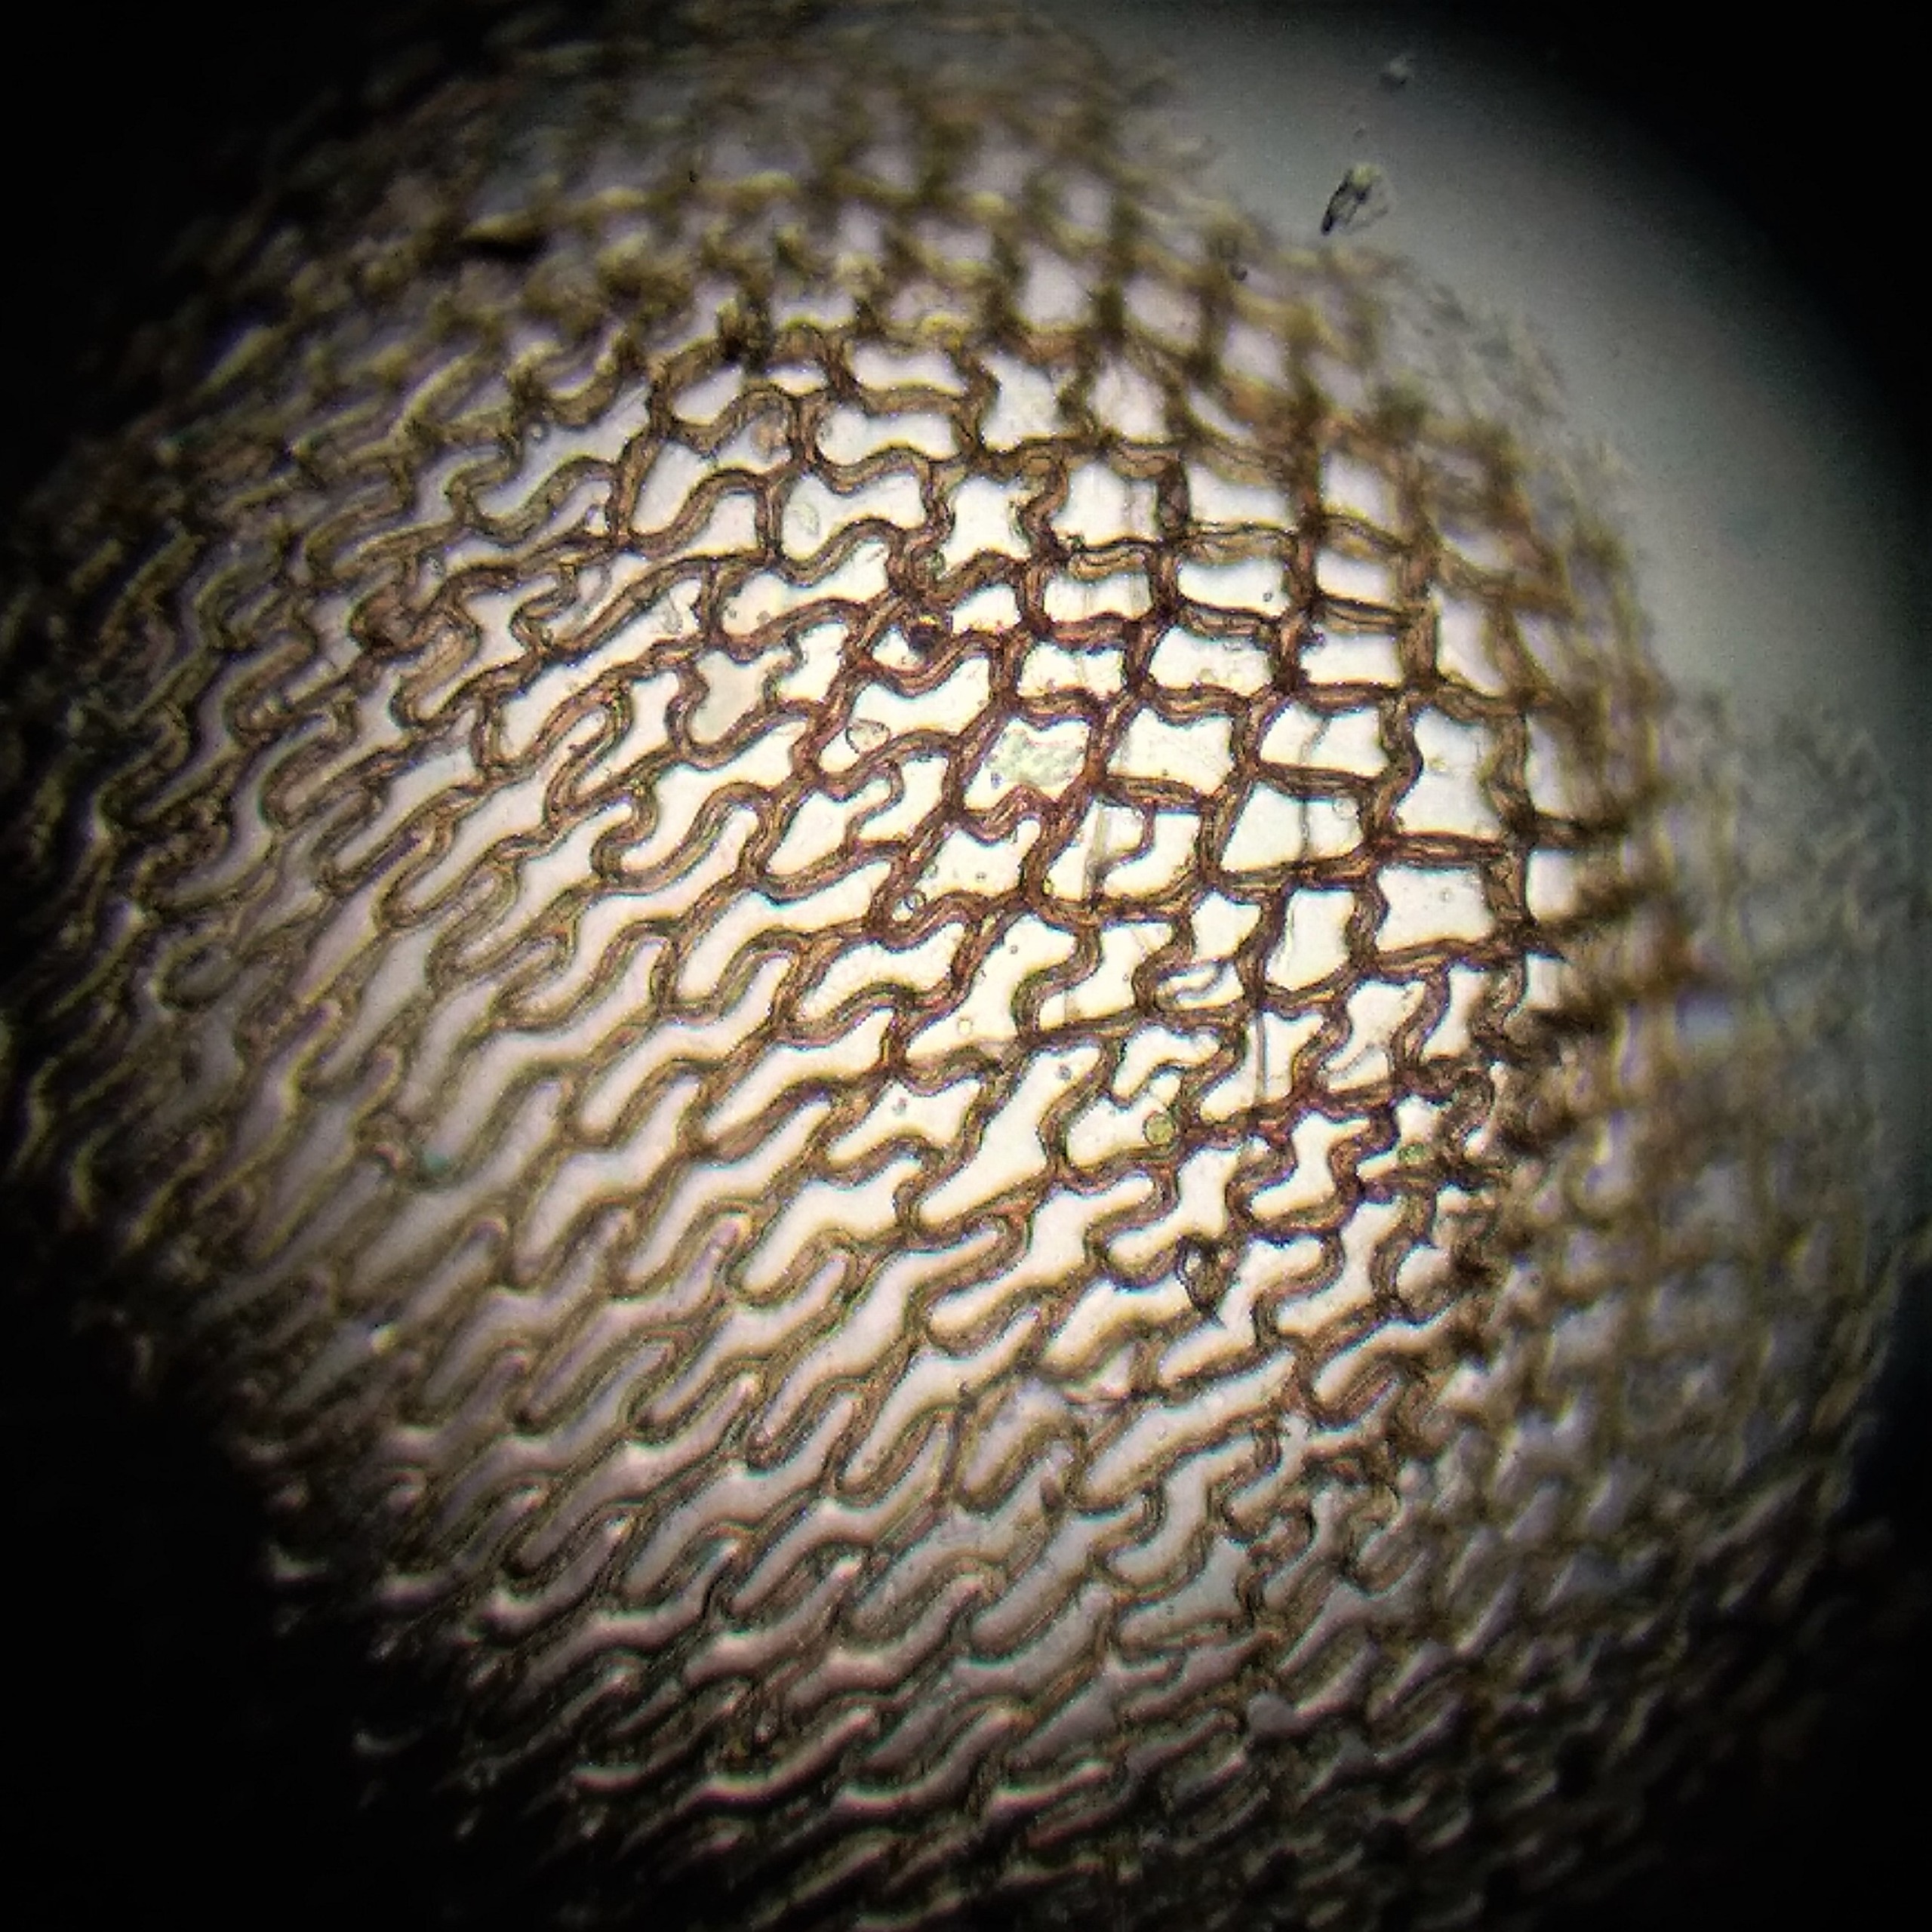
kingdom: Plantae
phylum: Bryophyta
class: Sphagnopsida
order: Sphagnales
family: Sphagnaceae
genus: Sphagnum
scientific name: Sphagnum
